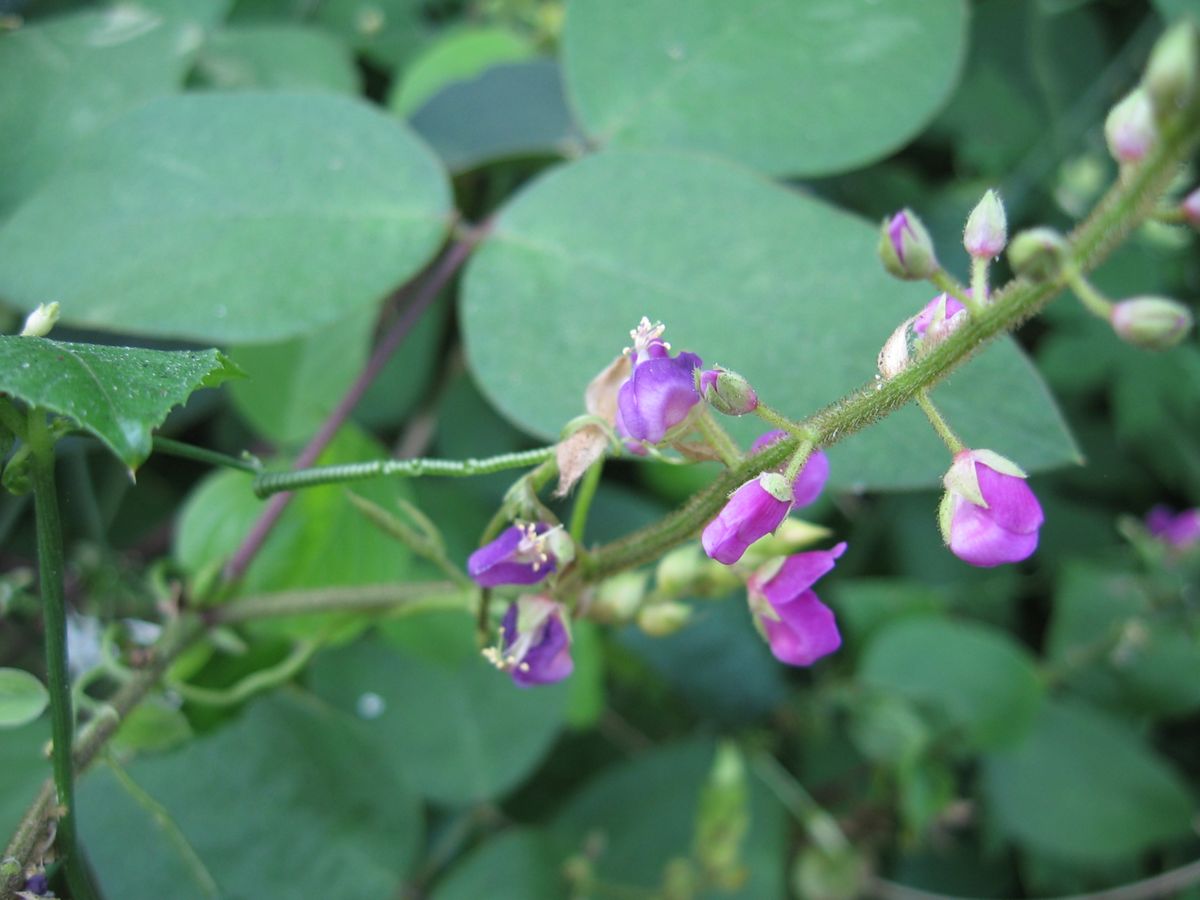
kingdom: Plantae
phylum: Tracheophyta
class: Magnoliopsida
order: Fabales
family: Fabaceae
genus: Desmodium
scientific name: Desmodium infractum
